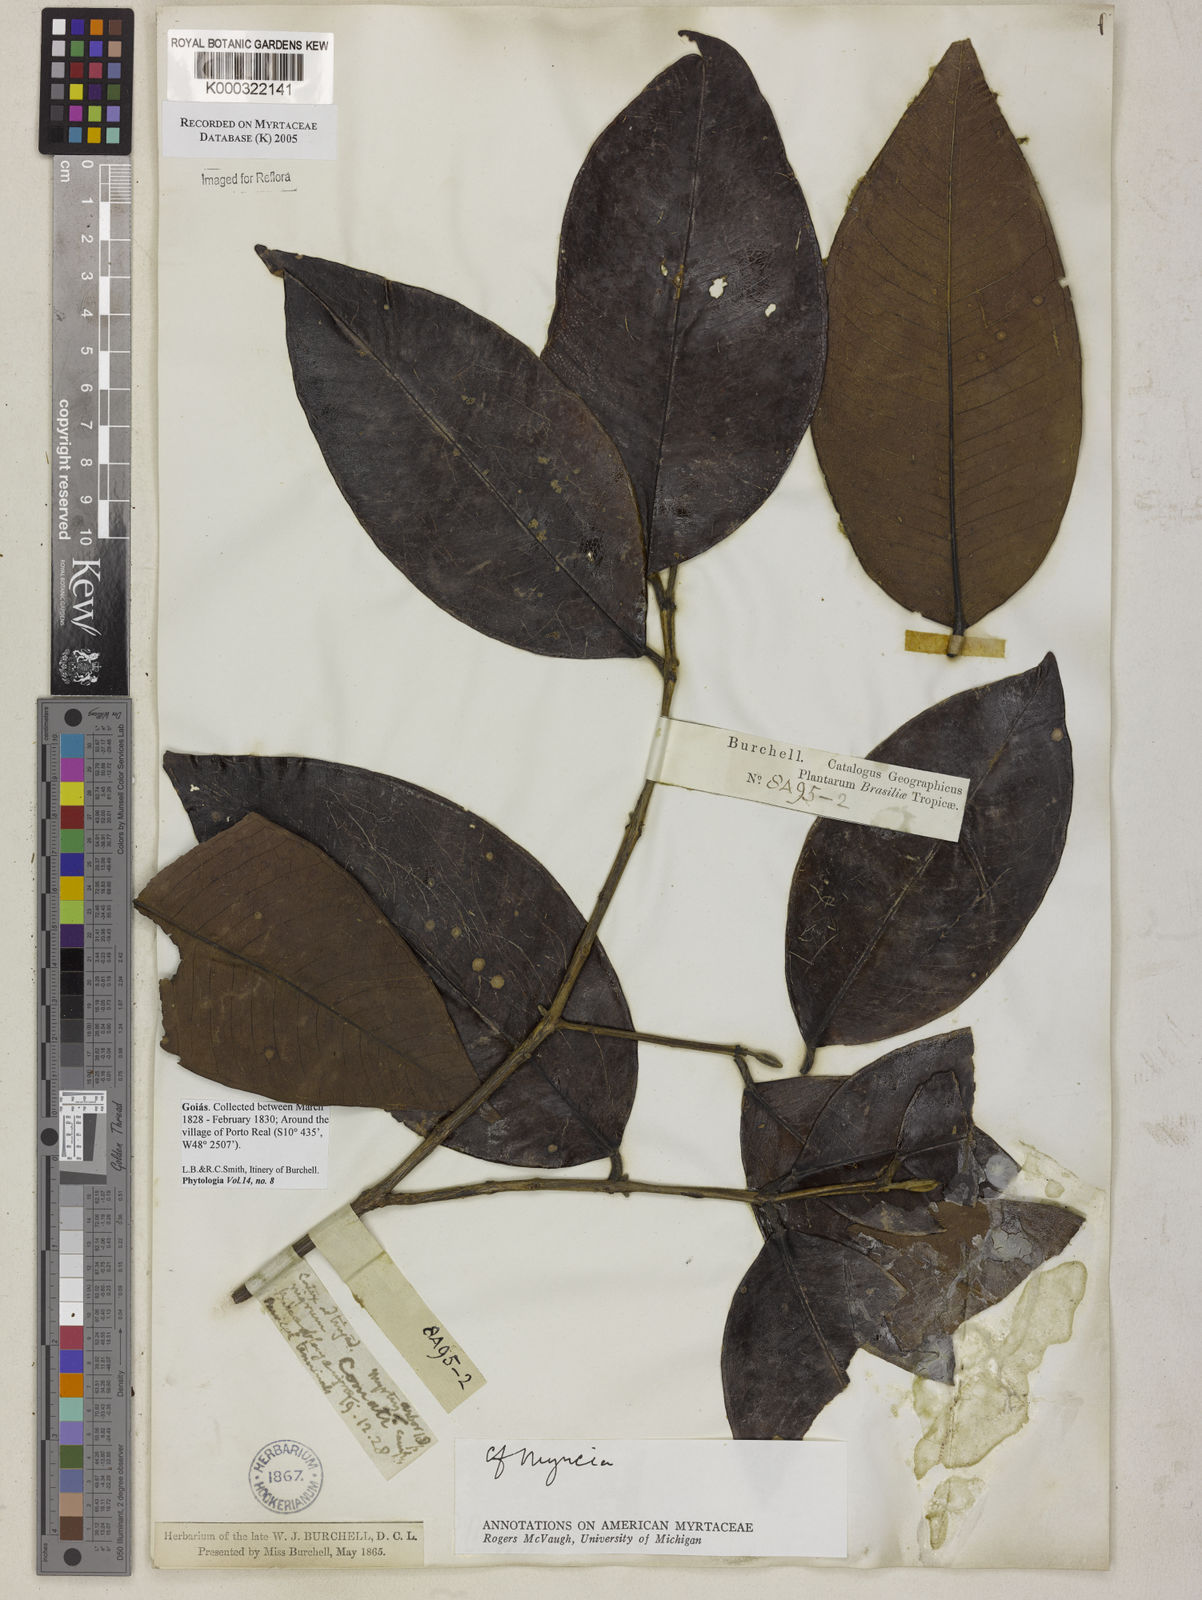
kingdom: Plantae
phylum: Tracheophyta
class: Magnoliopsida
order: Myrtales
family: Myrtaceae
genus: Myrcia
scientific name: Myrcia
